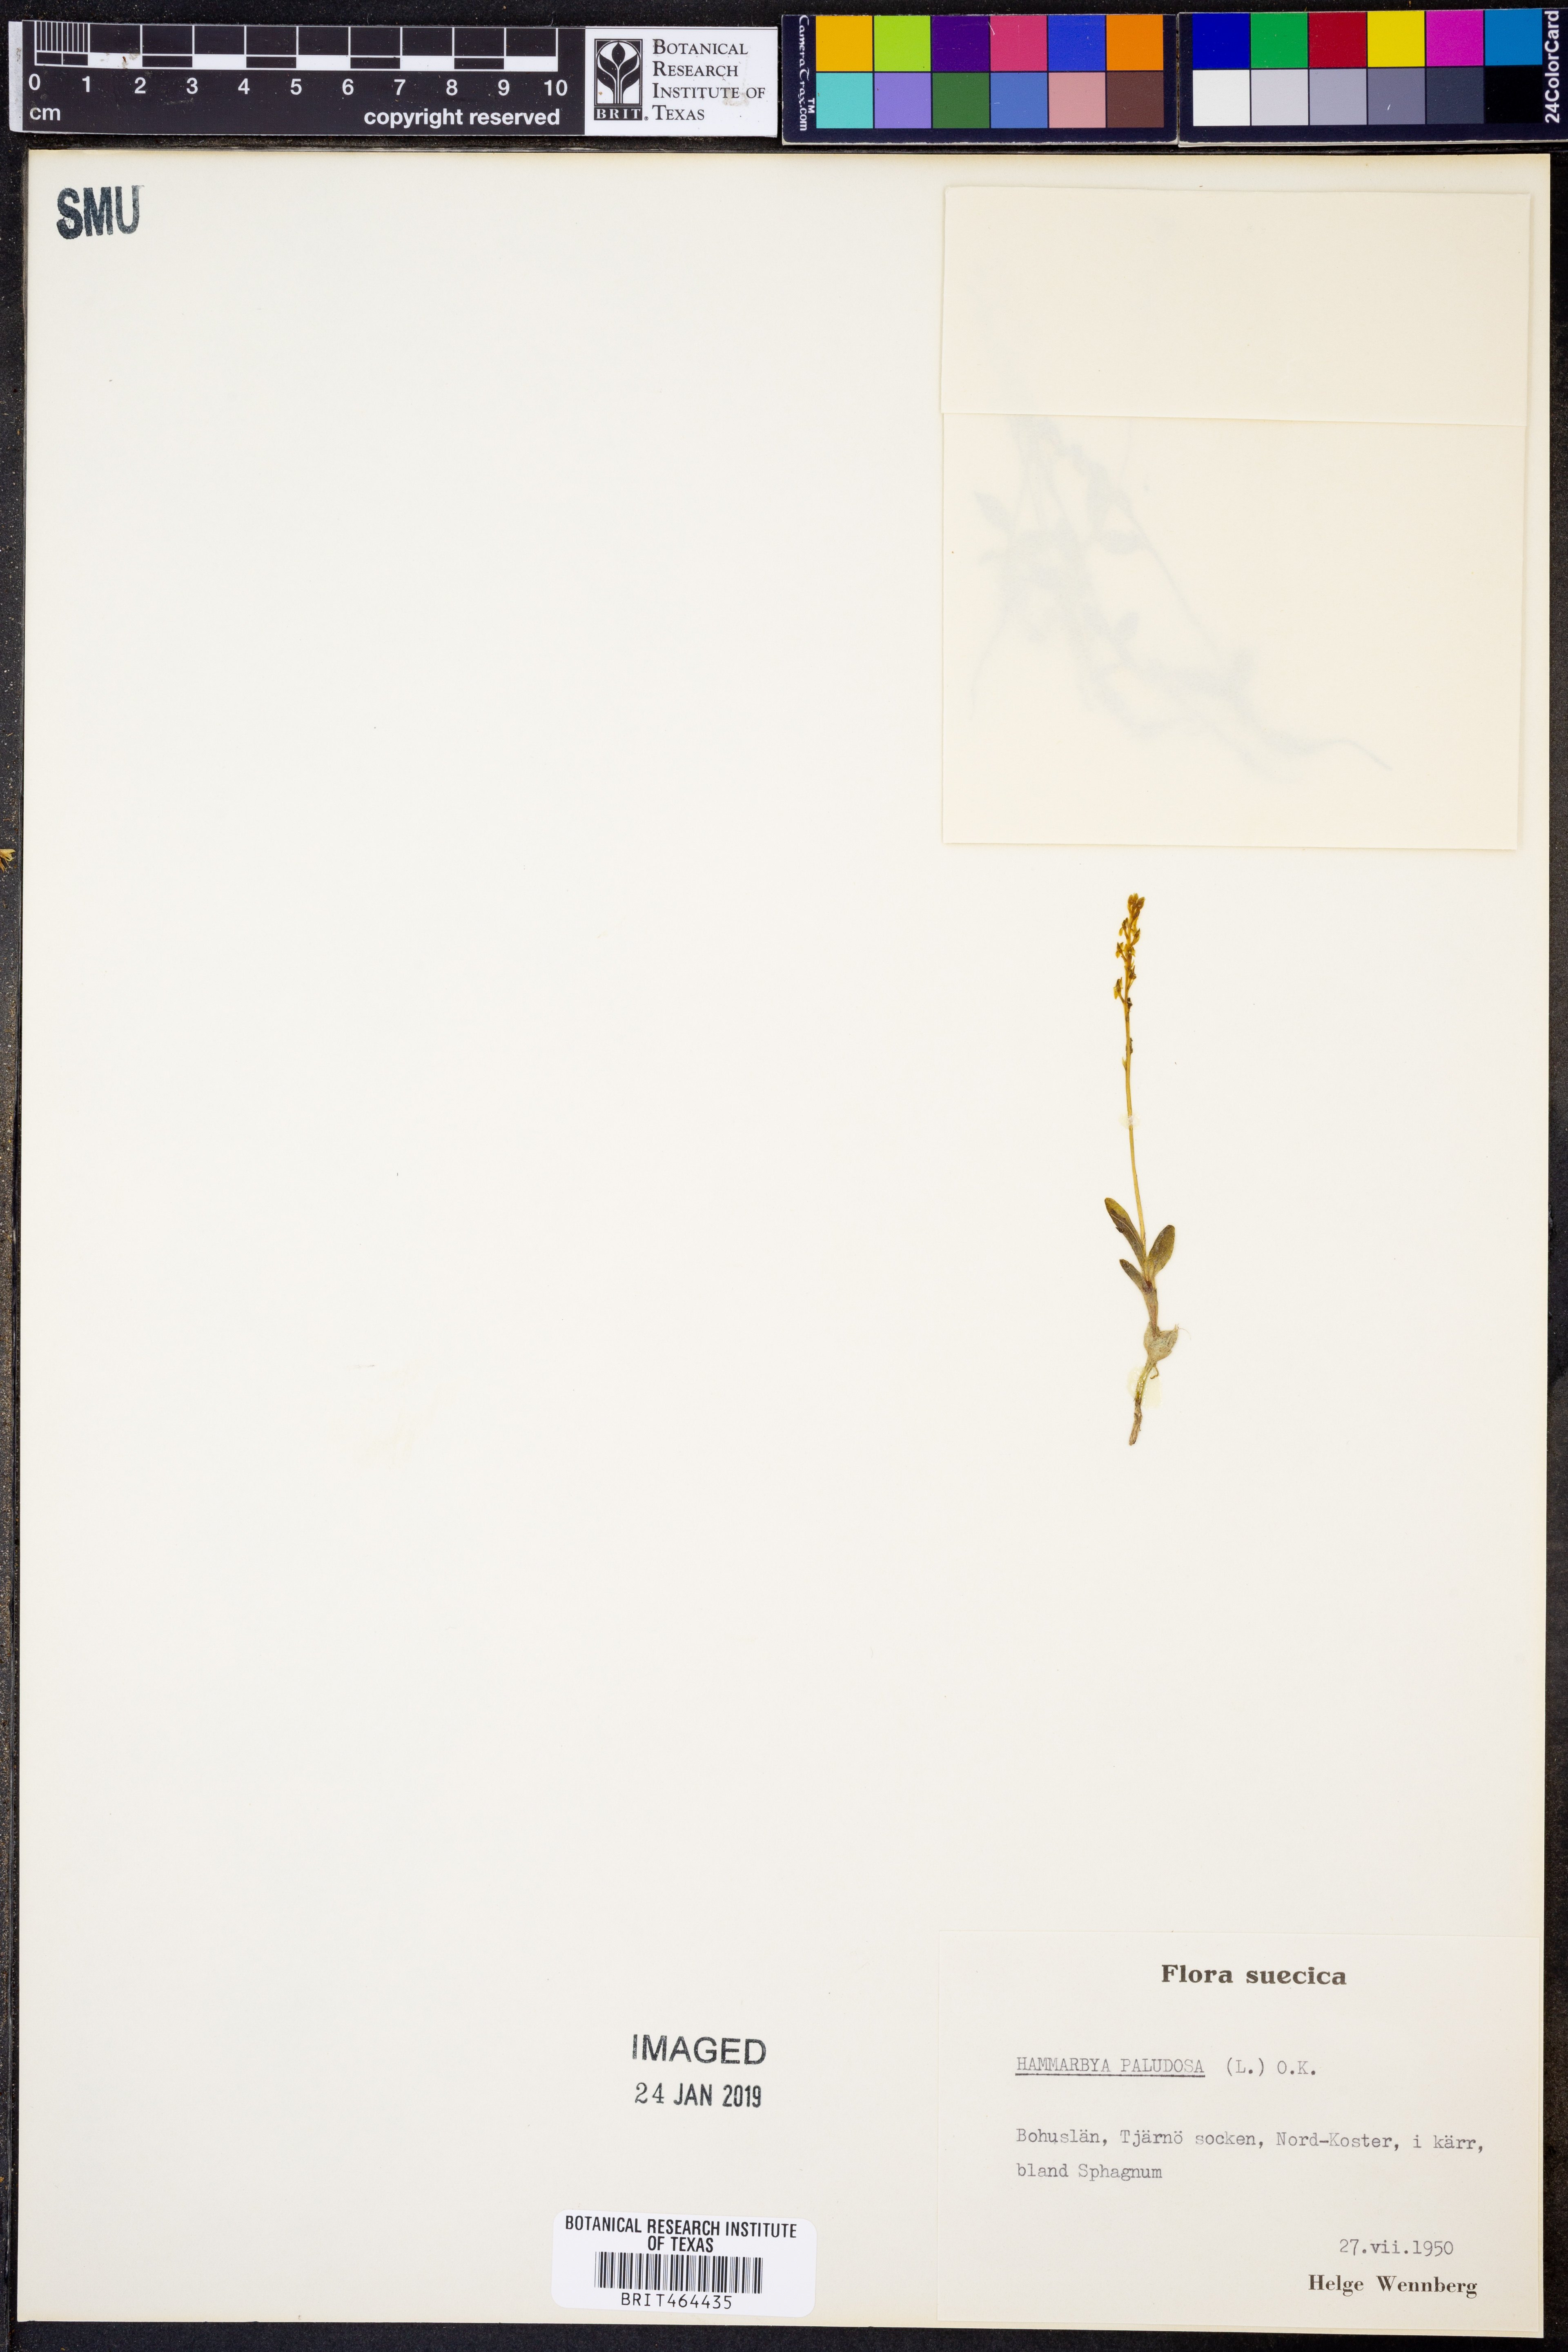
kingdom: Plantae
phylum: Tracheophyta
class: Liliopsida
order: Asparagales
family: Orchidaceae
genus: Hammarbya
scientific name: Hammarbya paludosa
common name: Bog orchid
